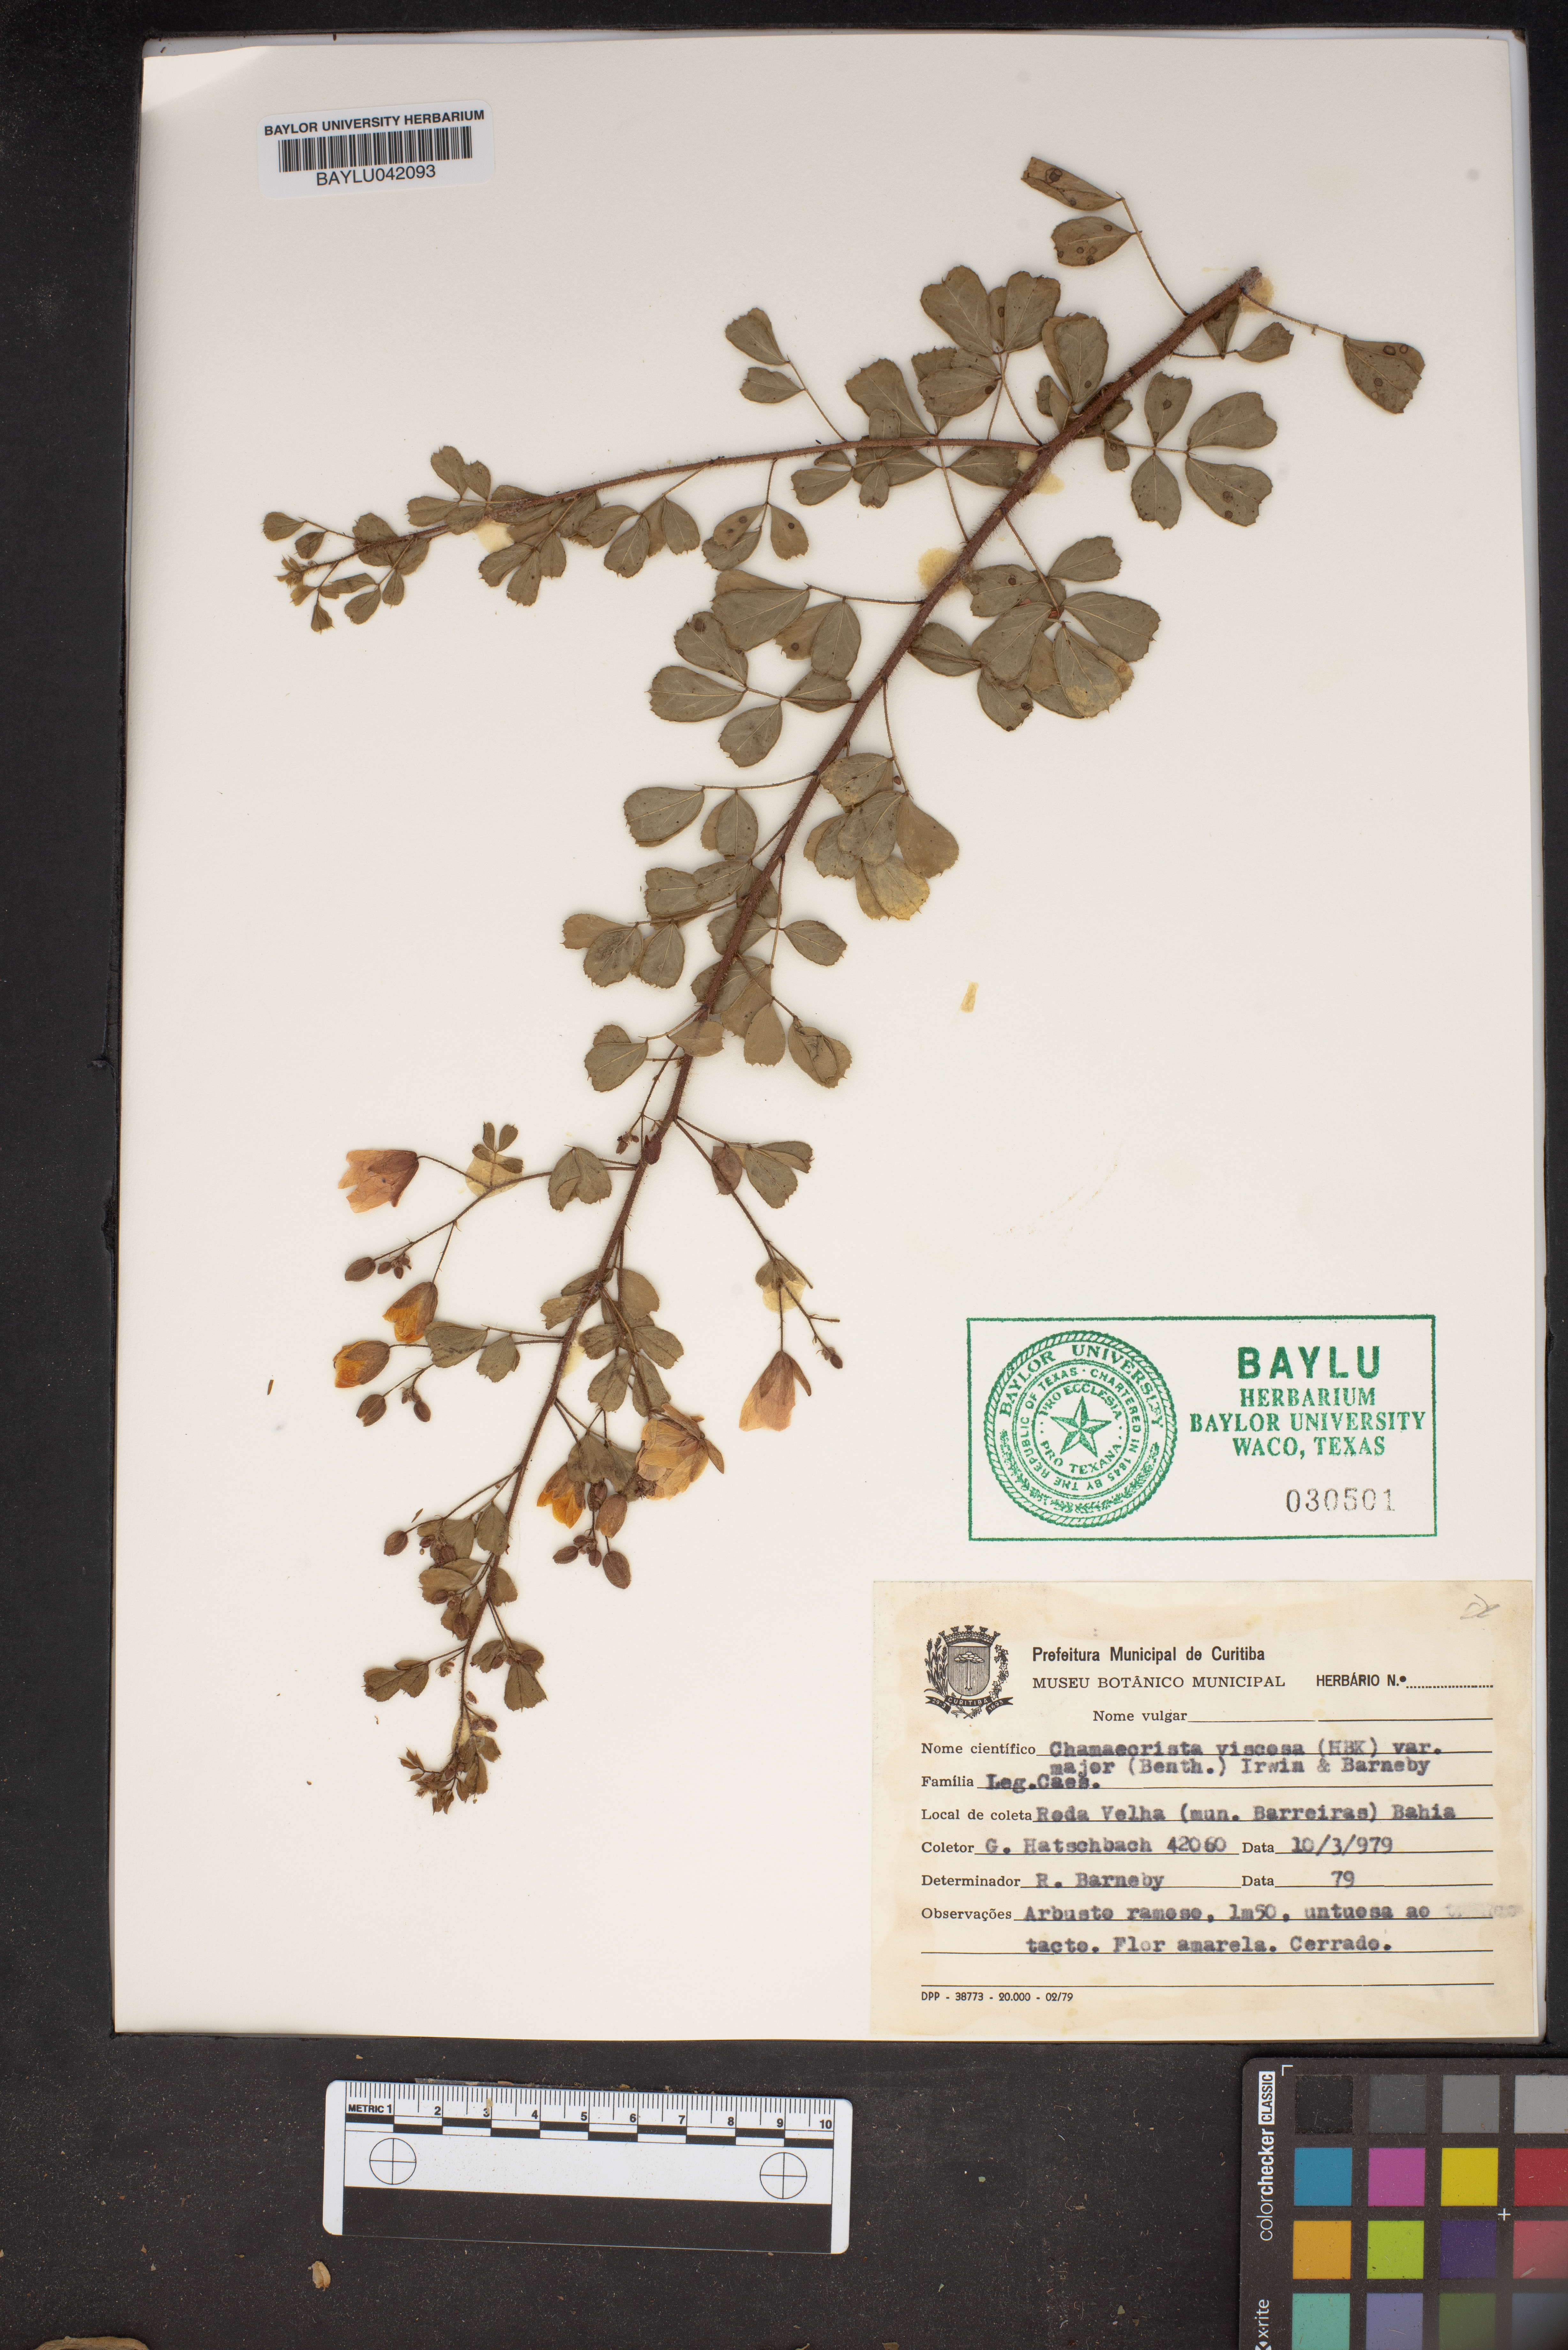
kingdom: Plantae
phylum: Tracheophyta
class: Magnoliopsida
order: Fabales
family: Fabaceae
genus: Chamaecrista
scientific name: Chamaecrista viscosa
